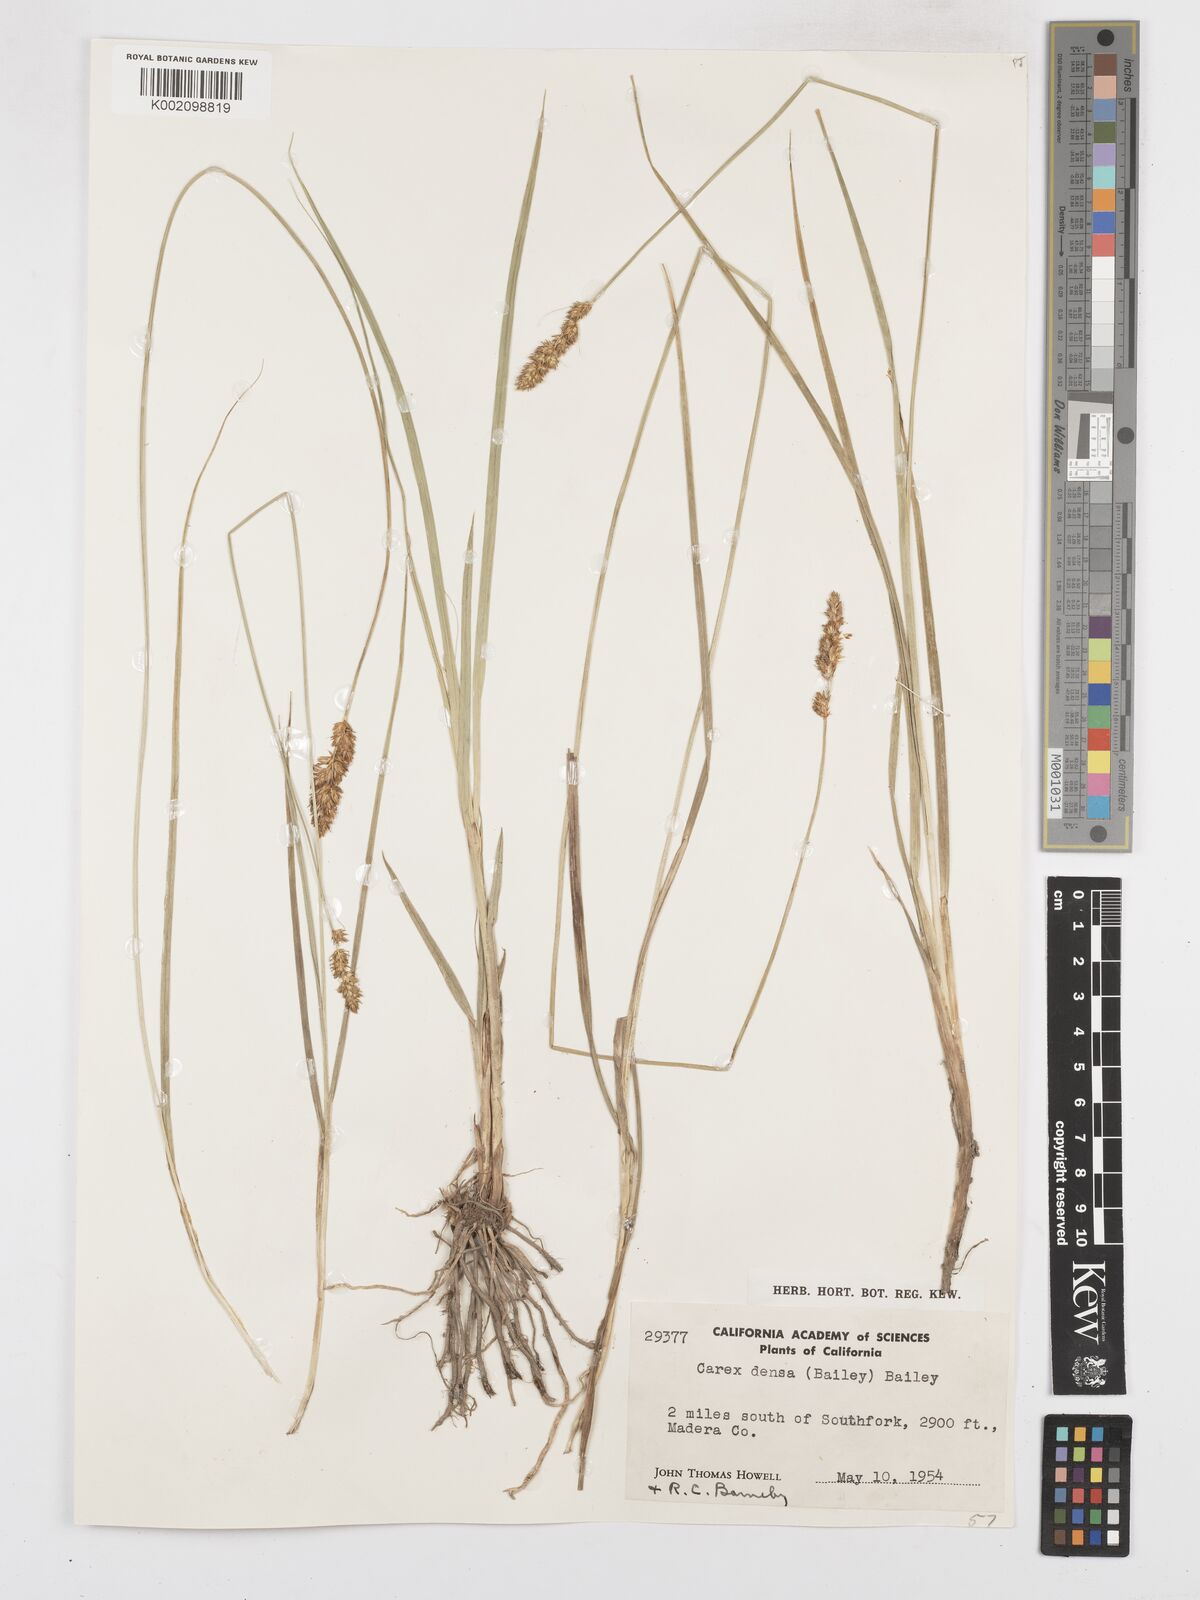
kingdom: Plantae
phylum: Tracheophyta
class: Liliopsida
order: Poales
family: Cyperaceae
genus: Carex
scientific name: Carex densa
